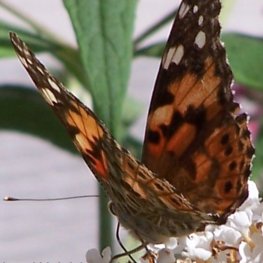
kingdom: Animalia
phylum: Arthropoda
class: Insecta
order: Lepidoptera
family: Nymphalidae
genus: Vanessa
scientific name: Vanessa cardui
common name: Painted Lady
